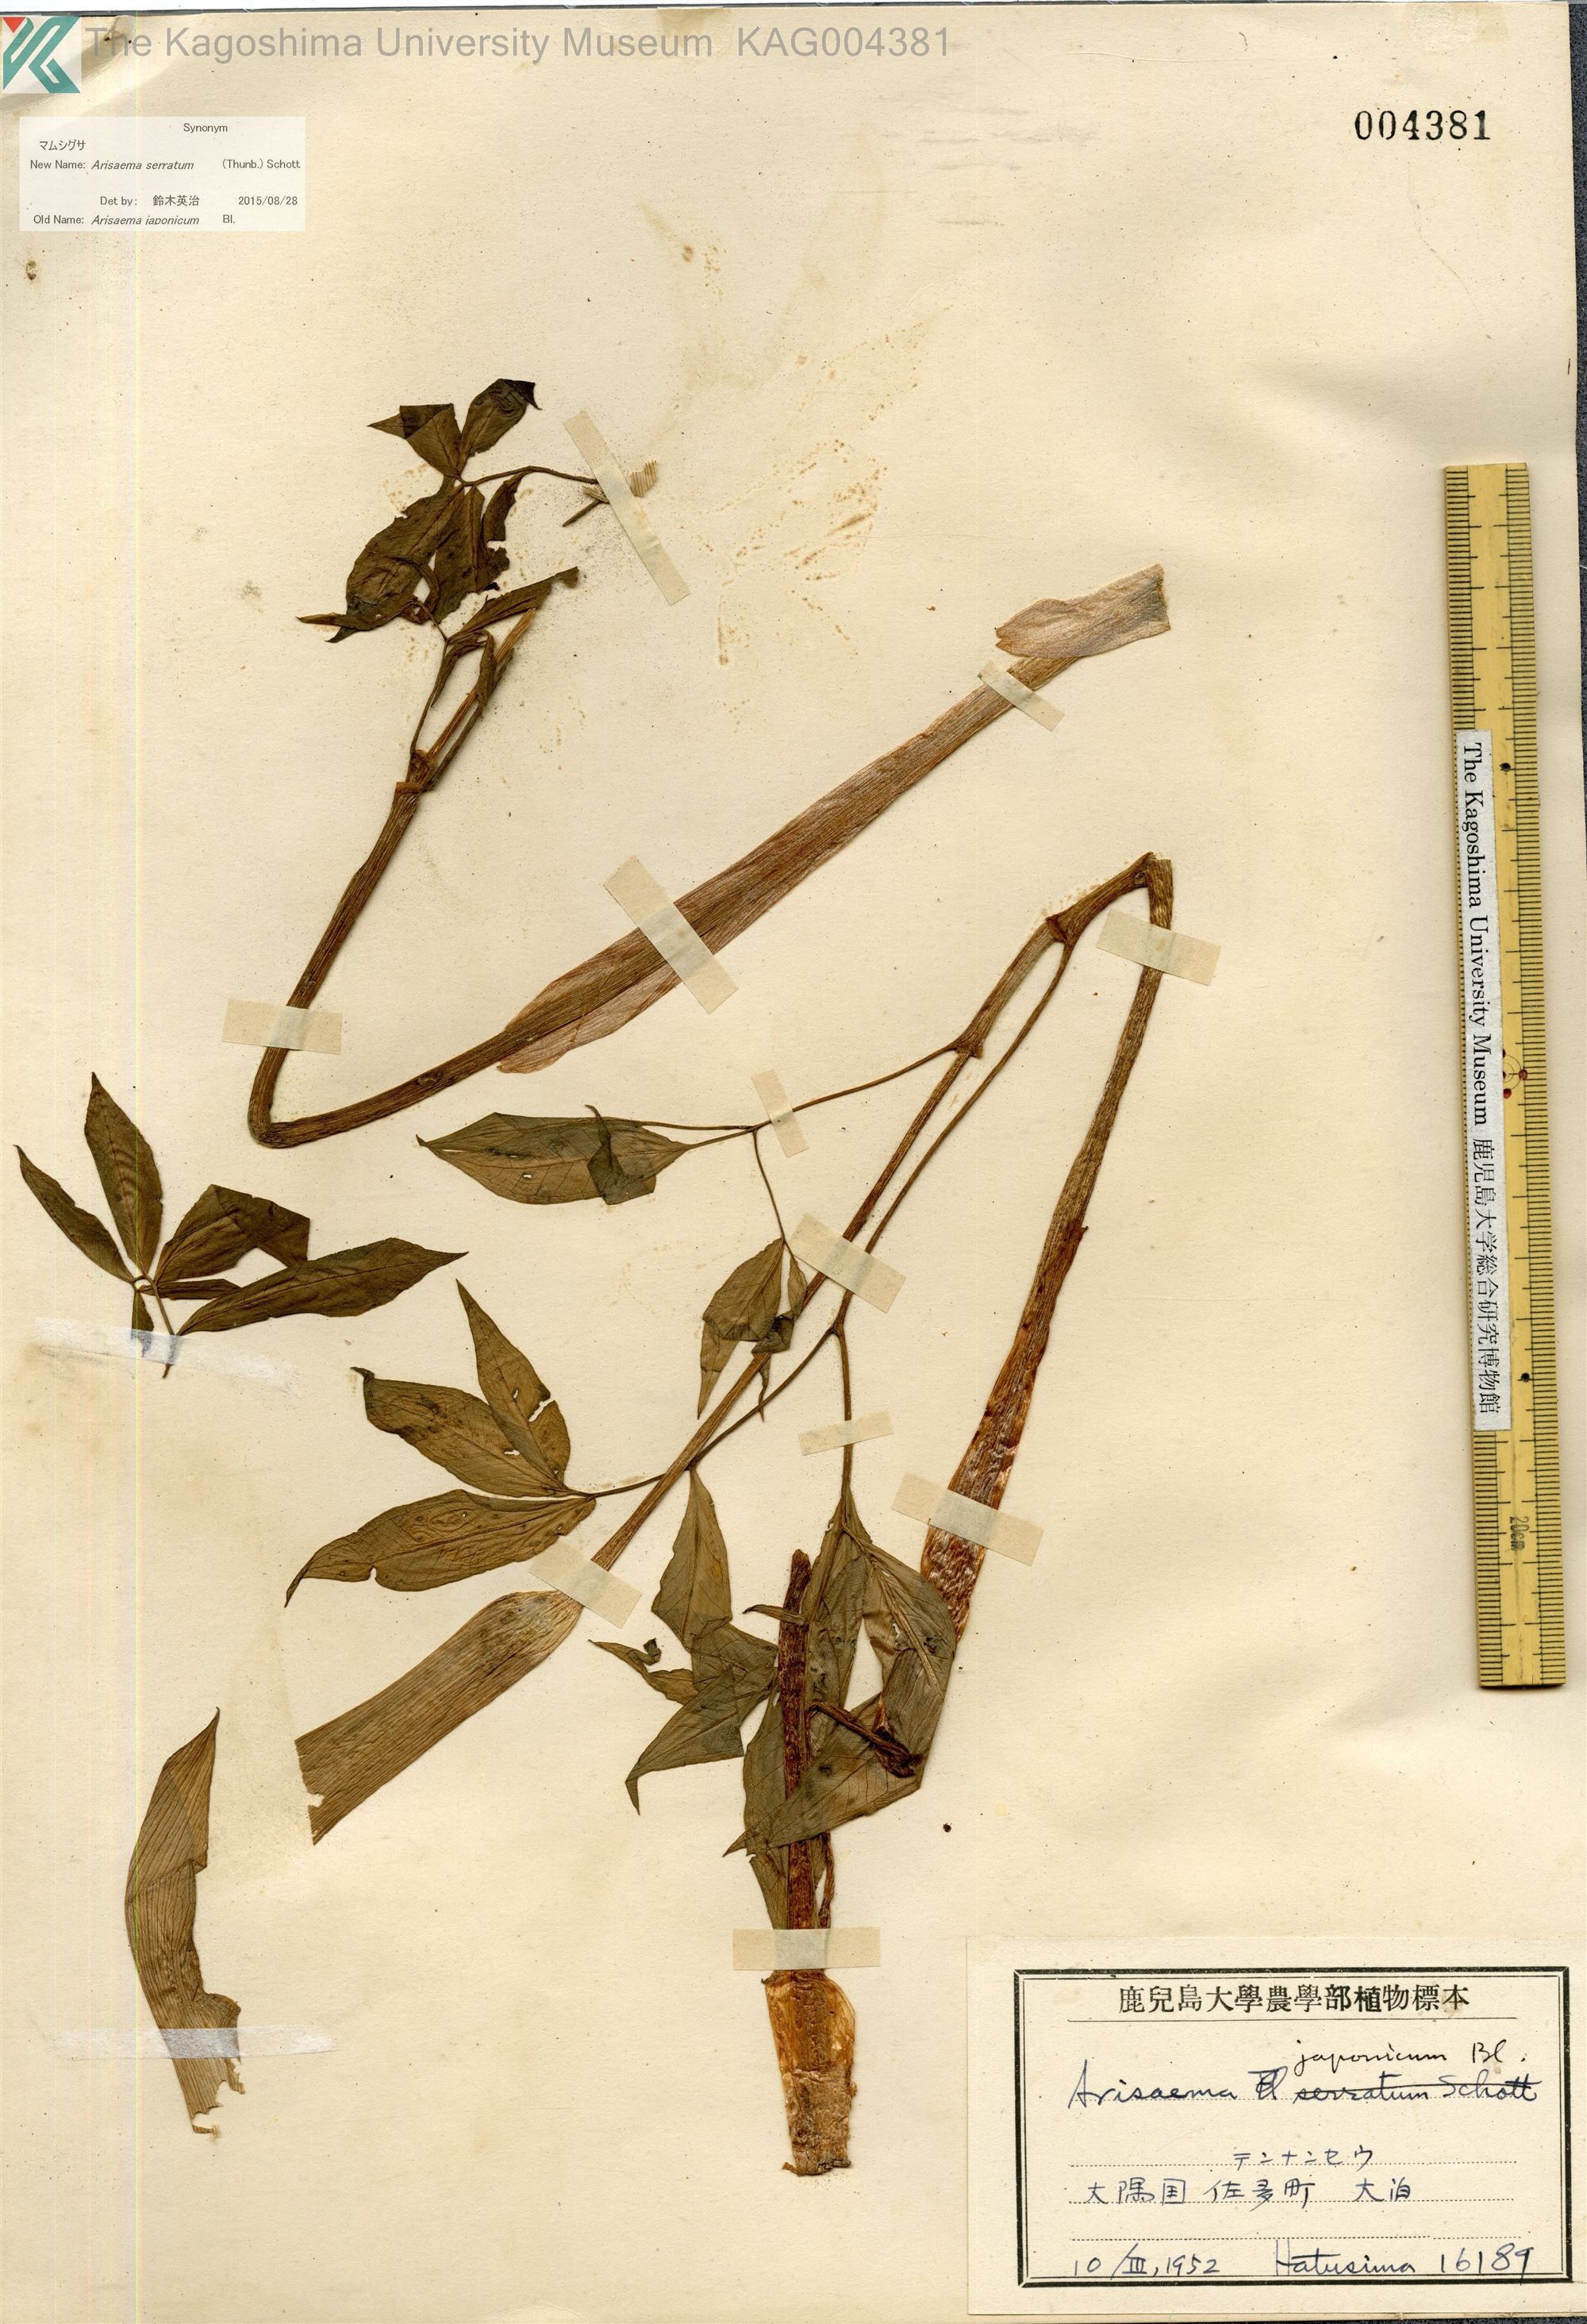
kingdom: Plantae
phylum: Tracheophyta
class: Liliopsida
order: Alismatales
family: Araceae
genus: Arisaema
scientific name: Arisaema serratum
